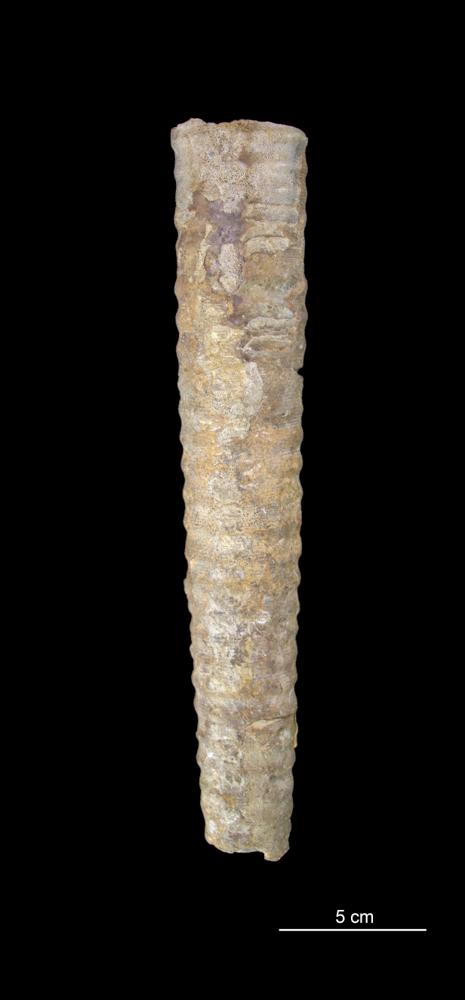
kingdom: Animalia
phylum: Mollusca
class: Cephalopoda
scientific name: Cephalopoda
